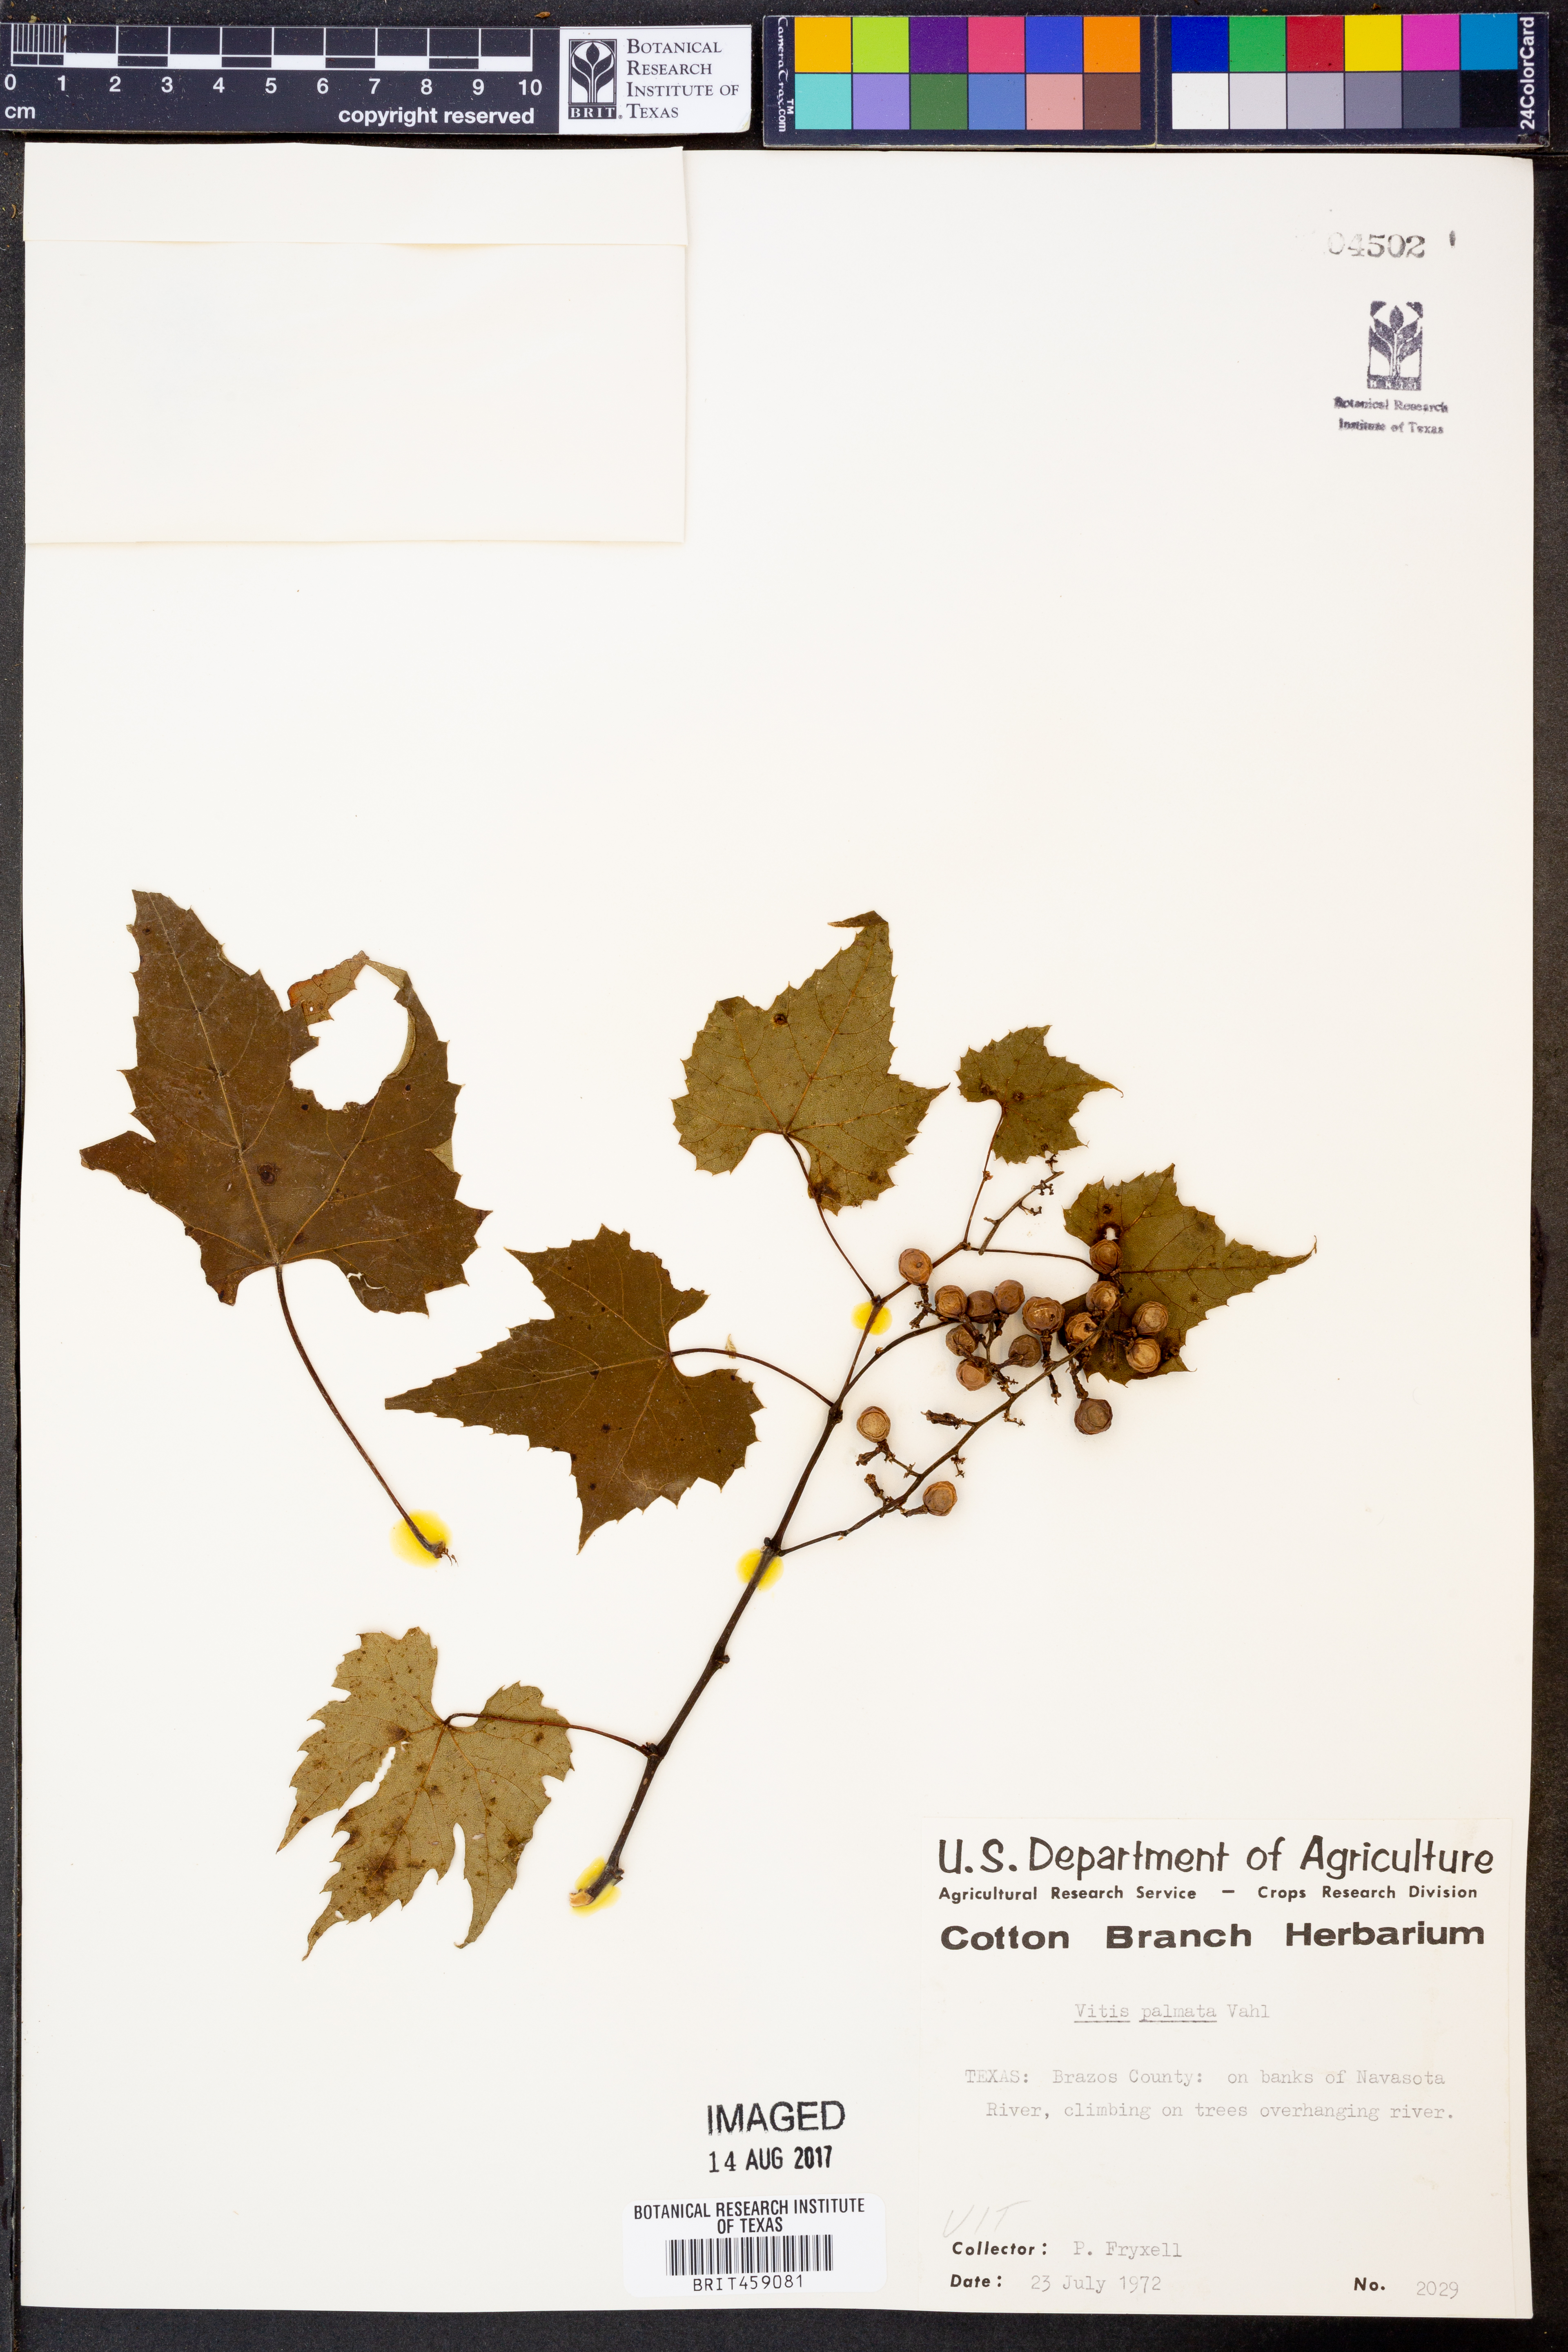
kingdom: Plantae
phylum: Tracheophyta
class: Magnoliopsida
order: Vitales
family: Vitaceae
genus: Vitis
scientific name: Vitis palmata
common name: Catbird grape
